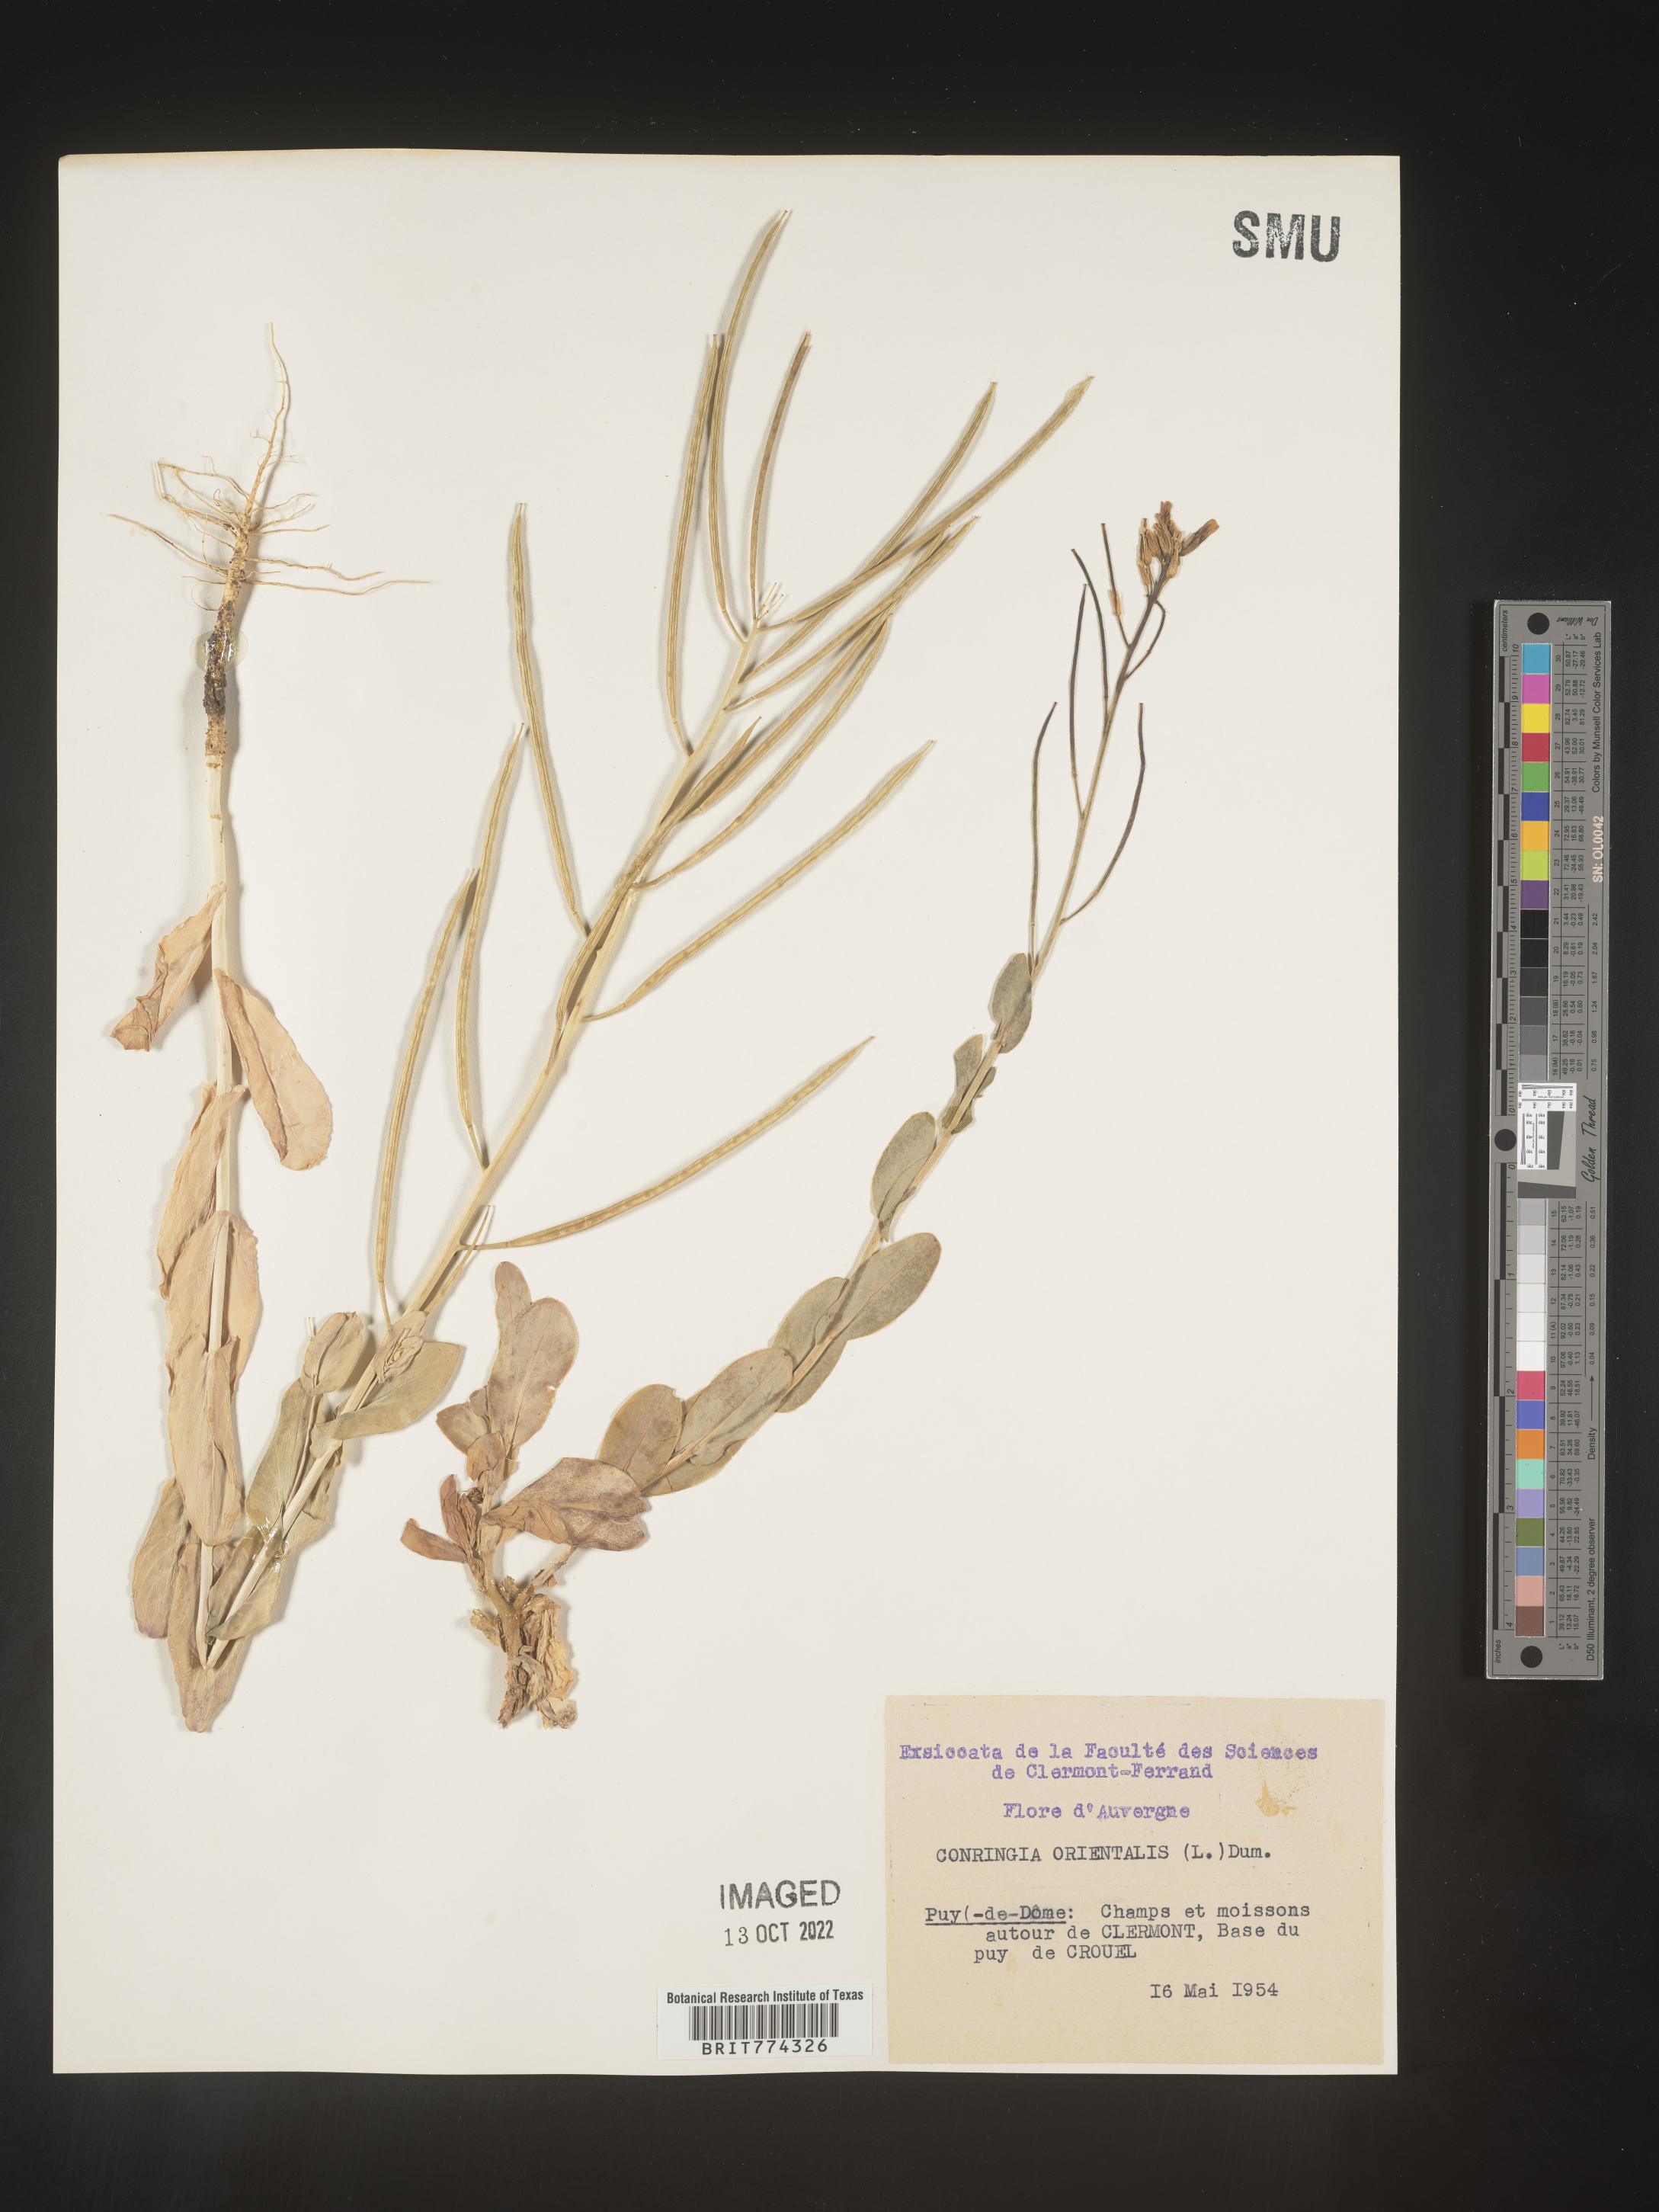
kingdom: Plantae
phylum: Tracheophyta
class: Magnoliopsida
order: Brassicales
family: Brassicaceae
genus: Conringia
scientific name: Conringia
